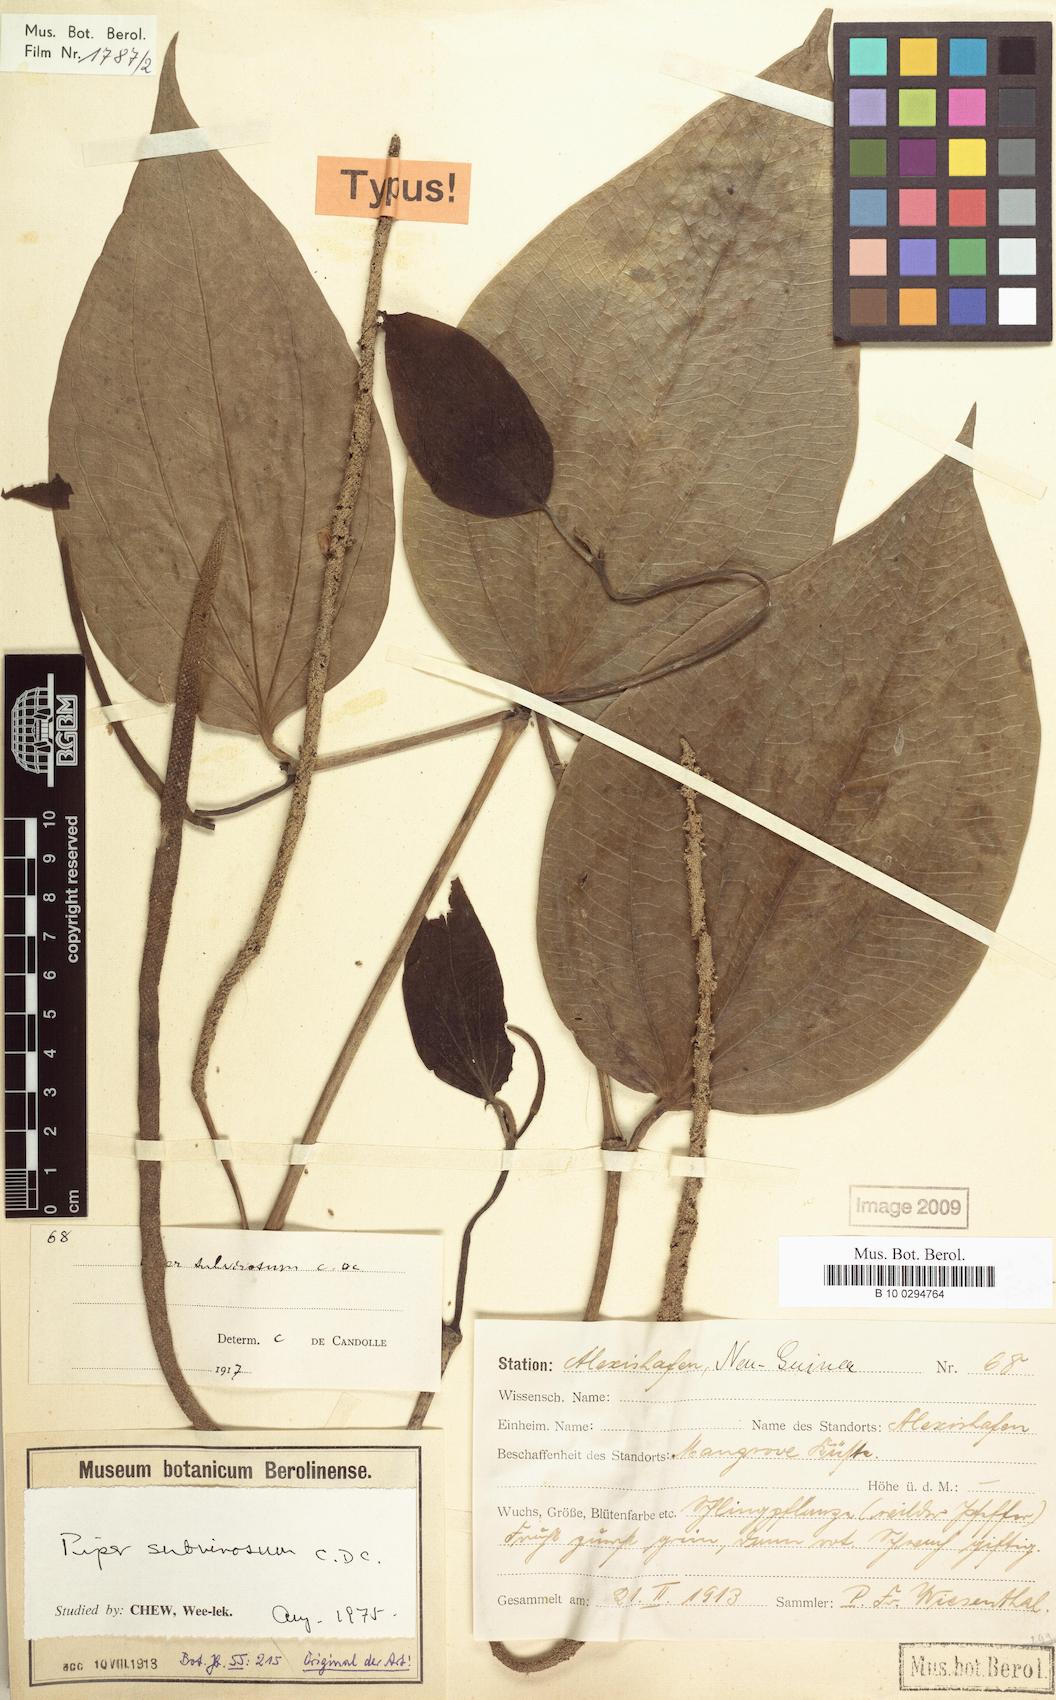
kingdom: Plantae
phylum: Tracheophyta
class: Magnoliopsida
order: Piperales
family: Piperaceae
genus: Piper
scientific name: Piper macropiper
